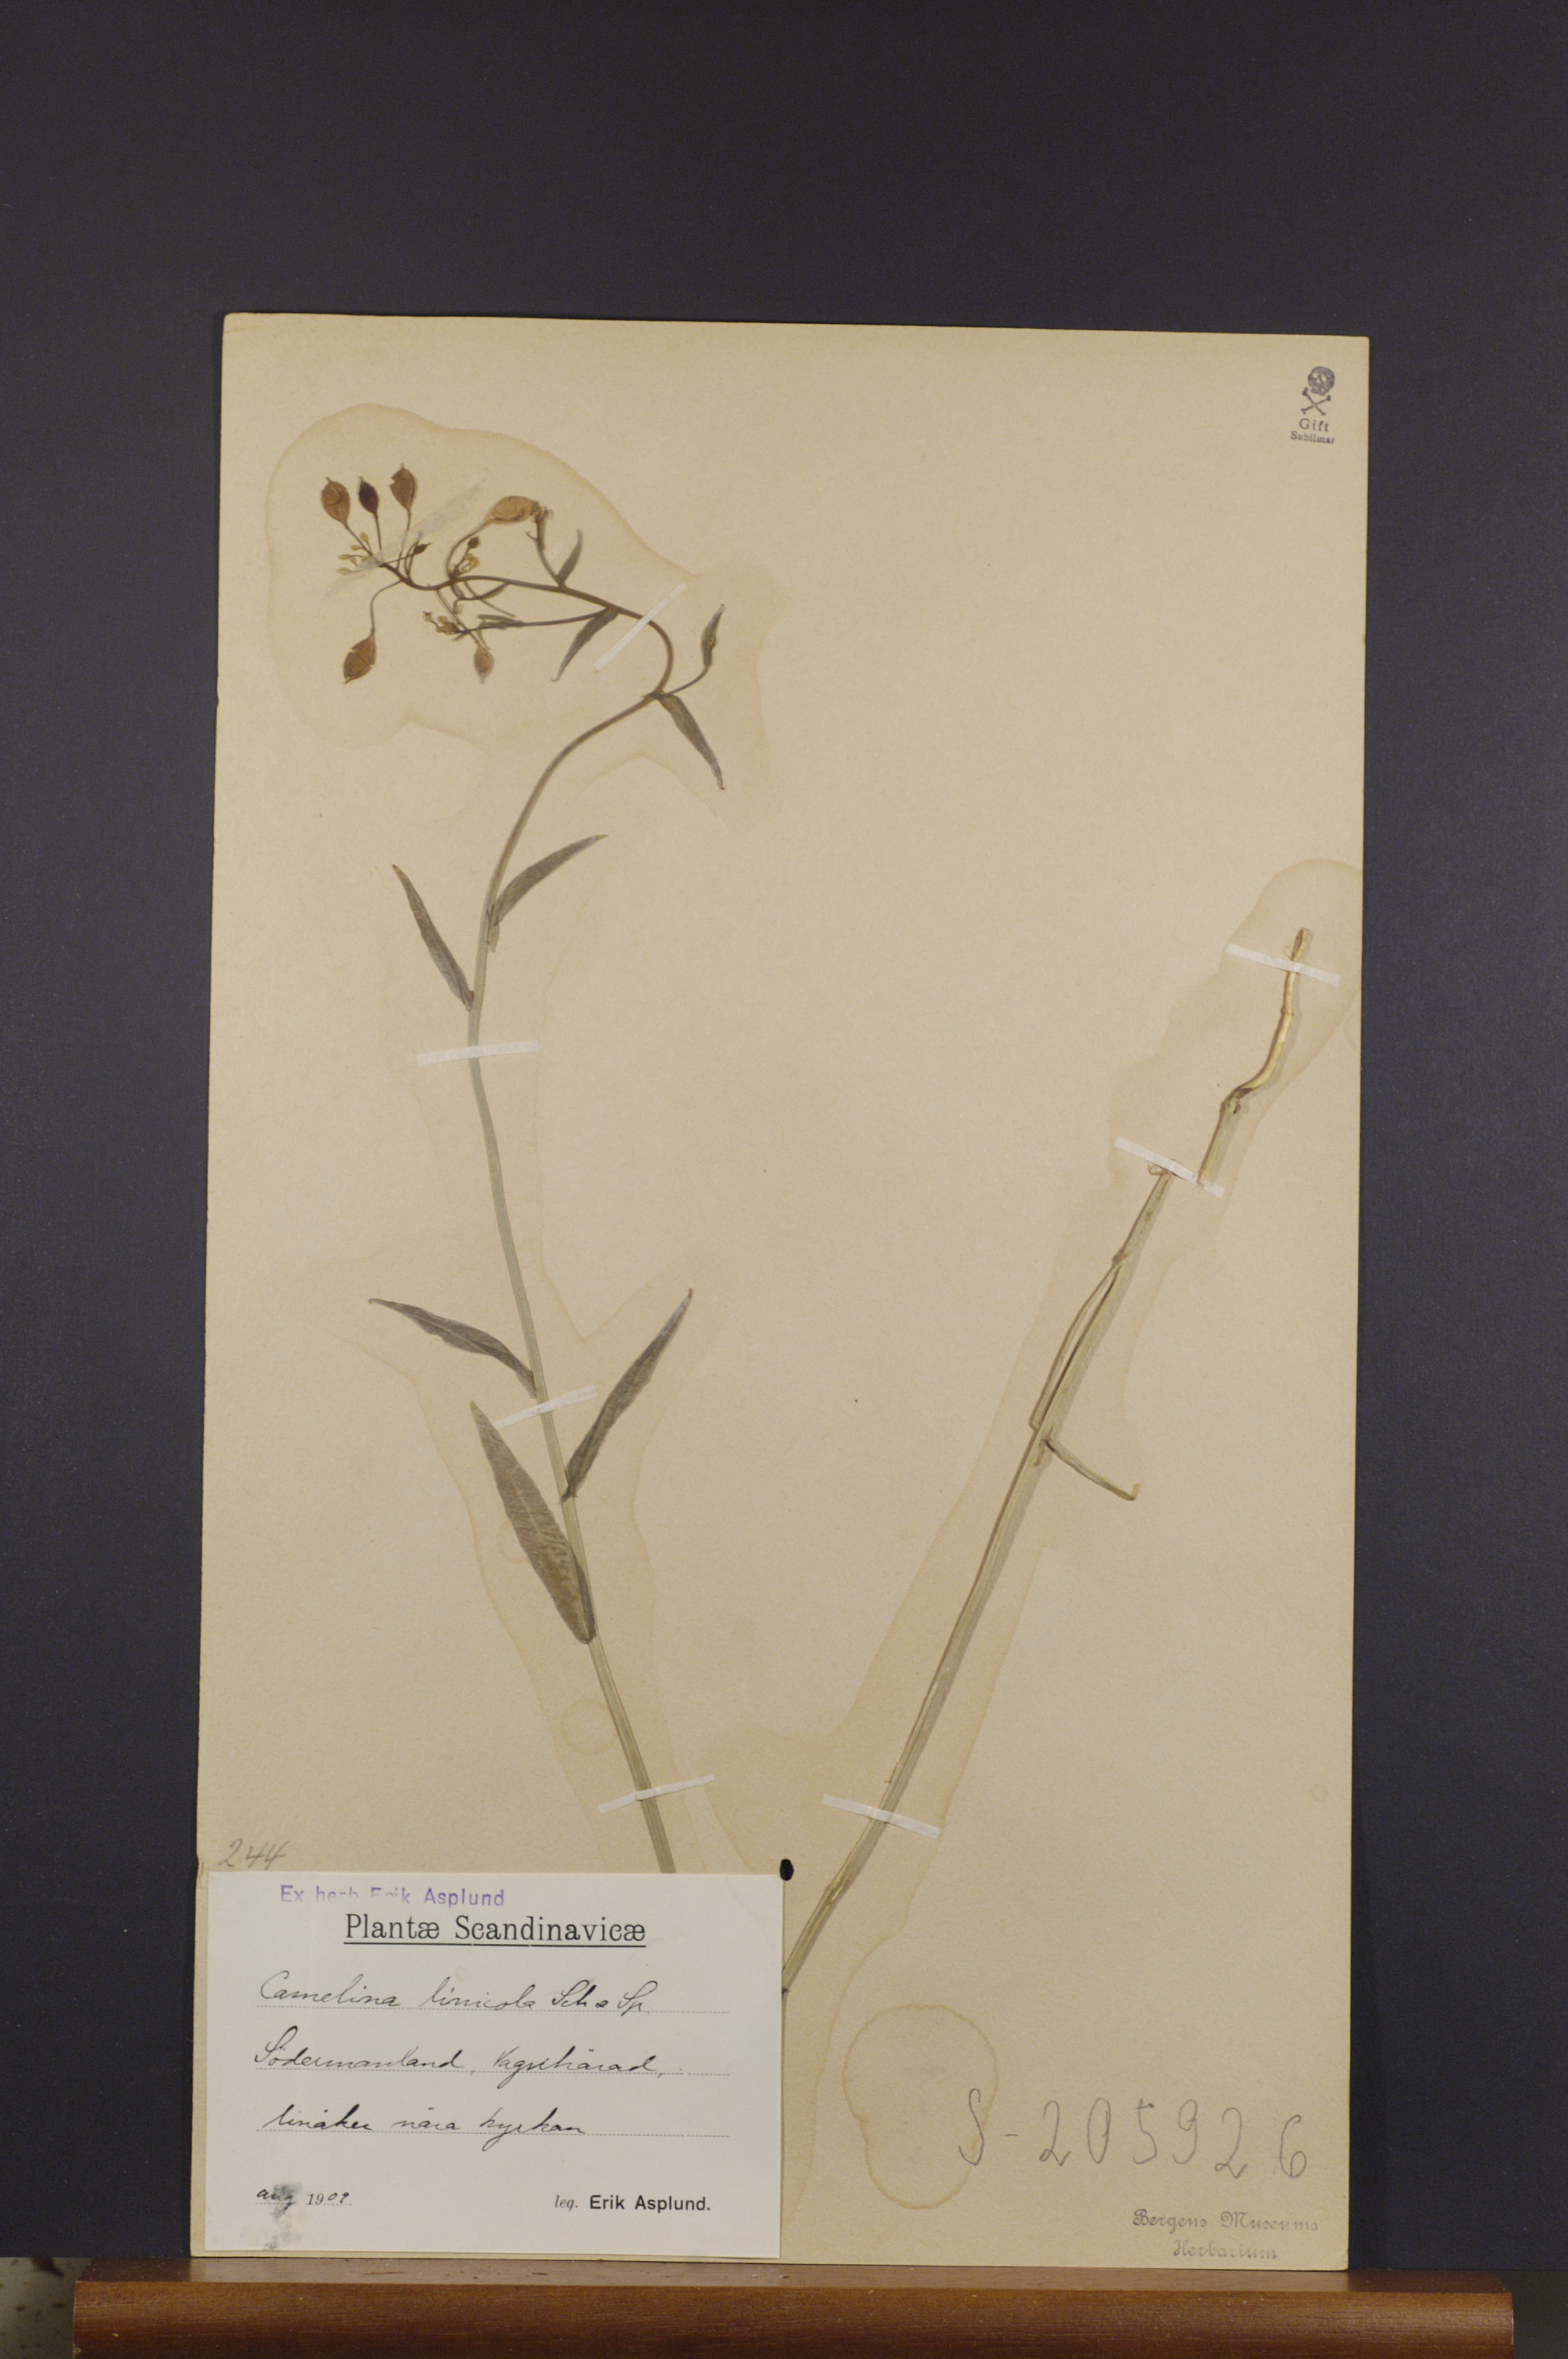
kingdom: Plantae
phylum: Tracheophyta
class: Magnoliopsida
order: Brassicales
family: Brassicaceae
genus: Camelina
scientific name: Camelina alyssum
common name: Gold-of-pleasure
